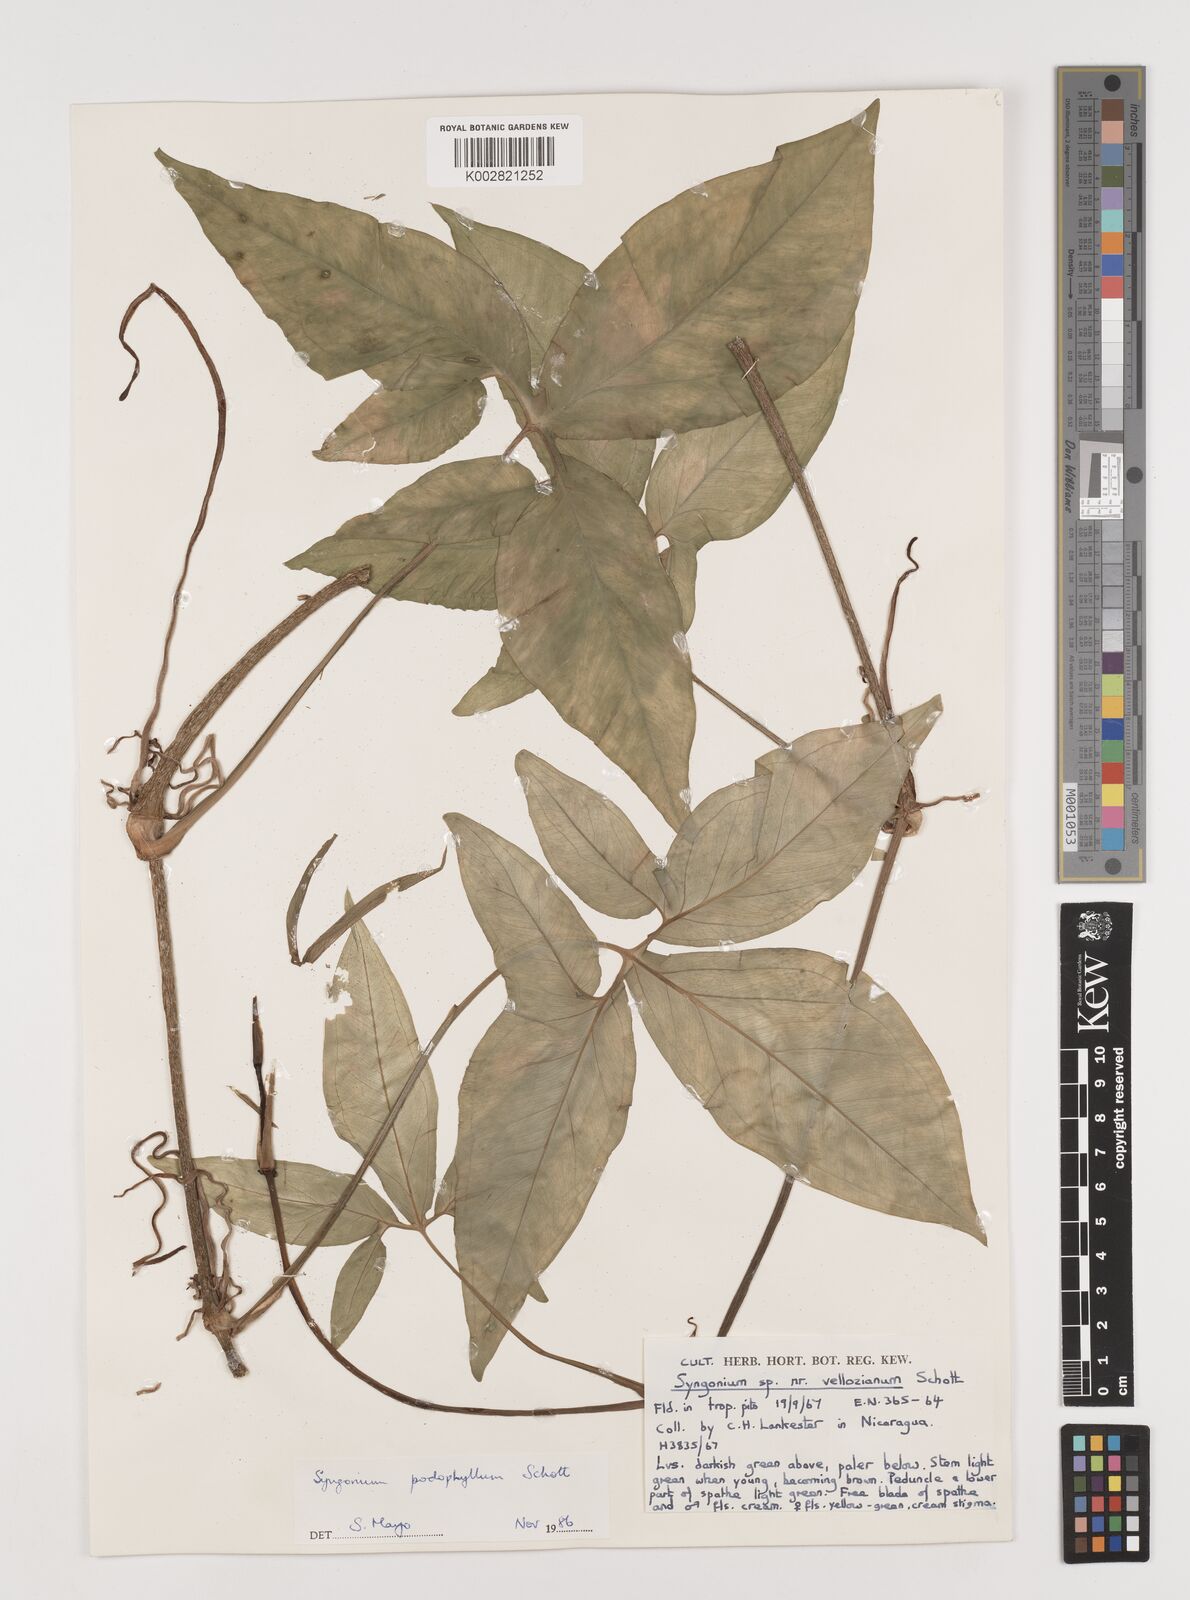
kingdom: Plantae
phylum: Tracheophyta
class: Liliopsida
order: Alismatales
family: Araceae
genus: Syngonium
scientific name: Syngonium podophyllum
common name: American evergreen
